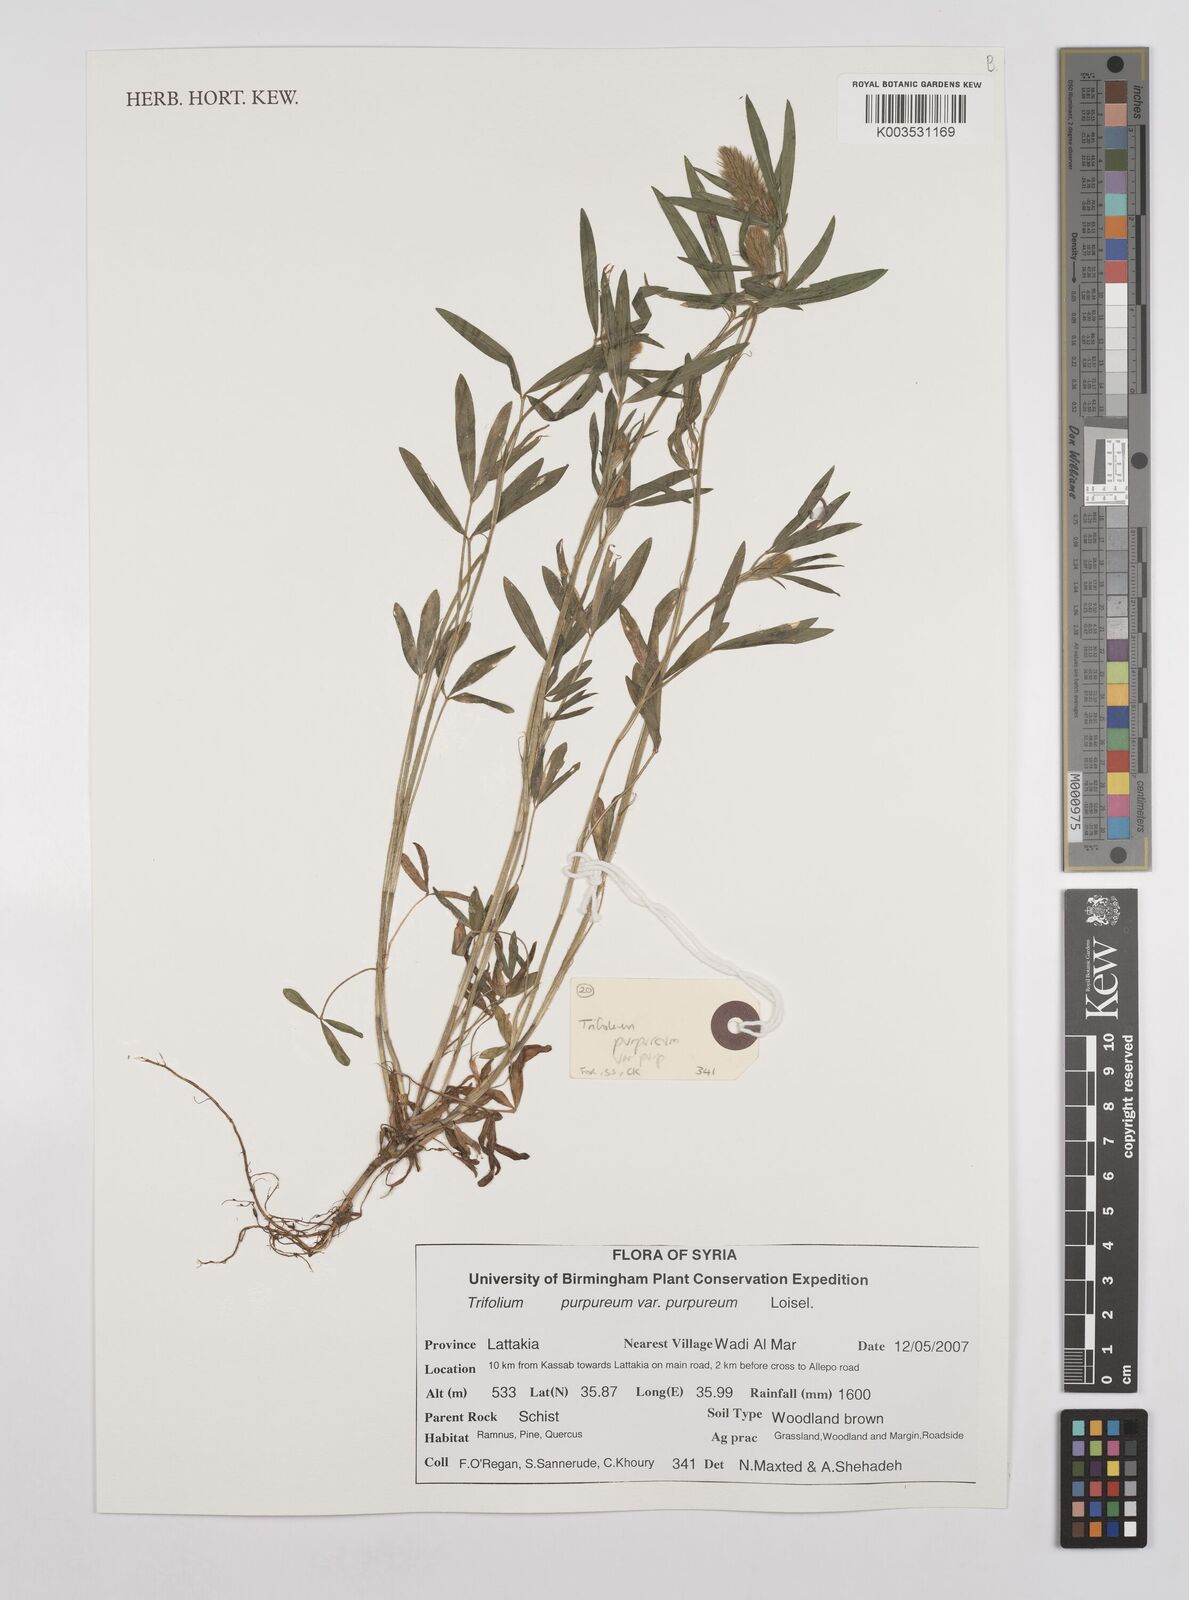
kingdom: Plantae
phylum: Tracheophyta
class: Magnoliopsida
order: Fabales
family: Fabaceae
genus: Trifolium
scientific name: Trifolium purpureum
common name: Purple clover
